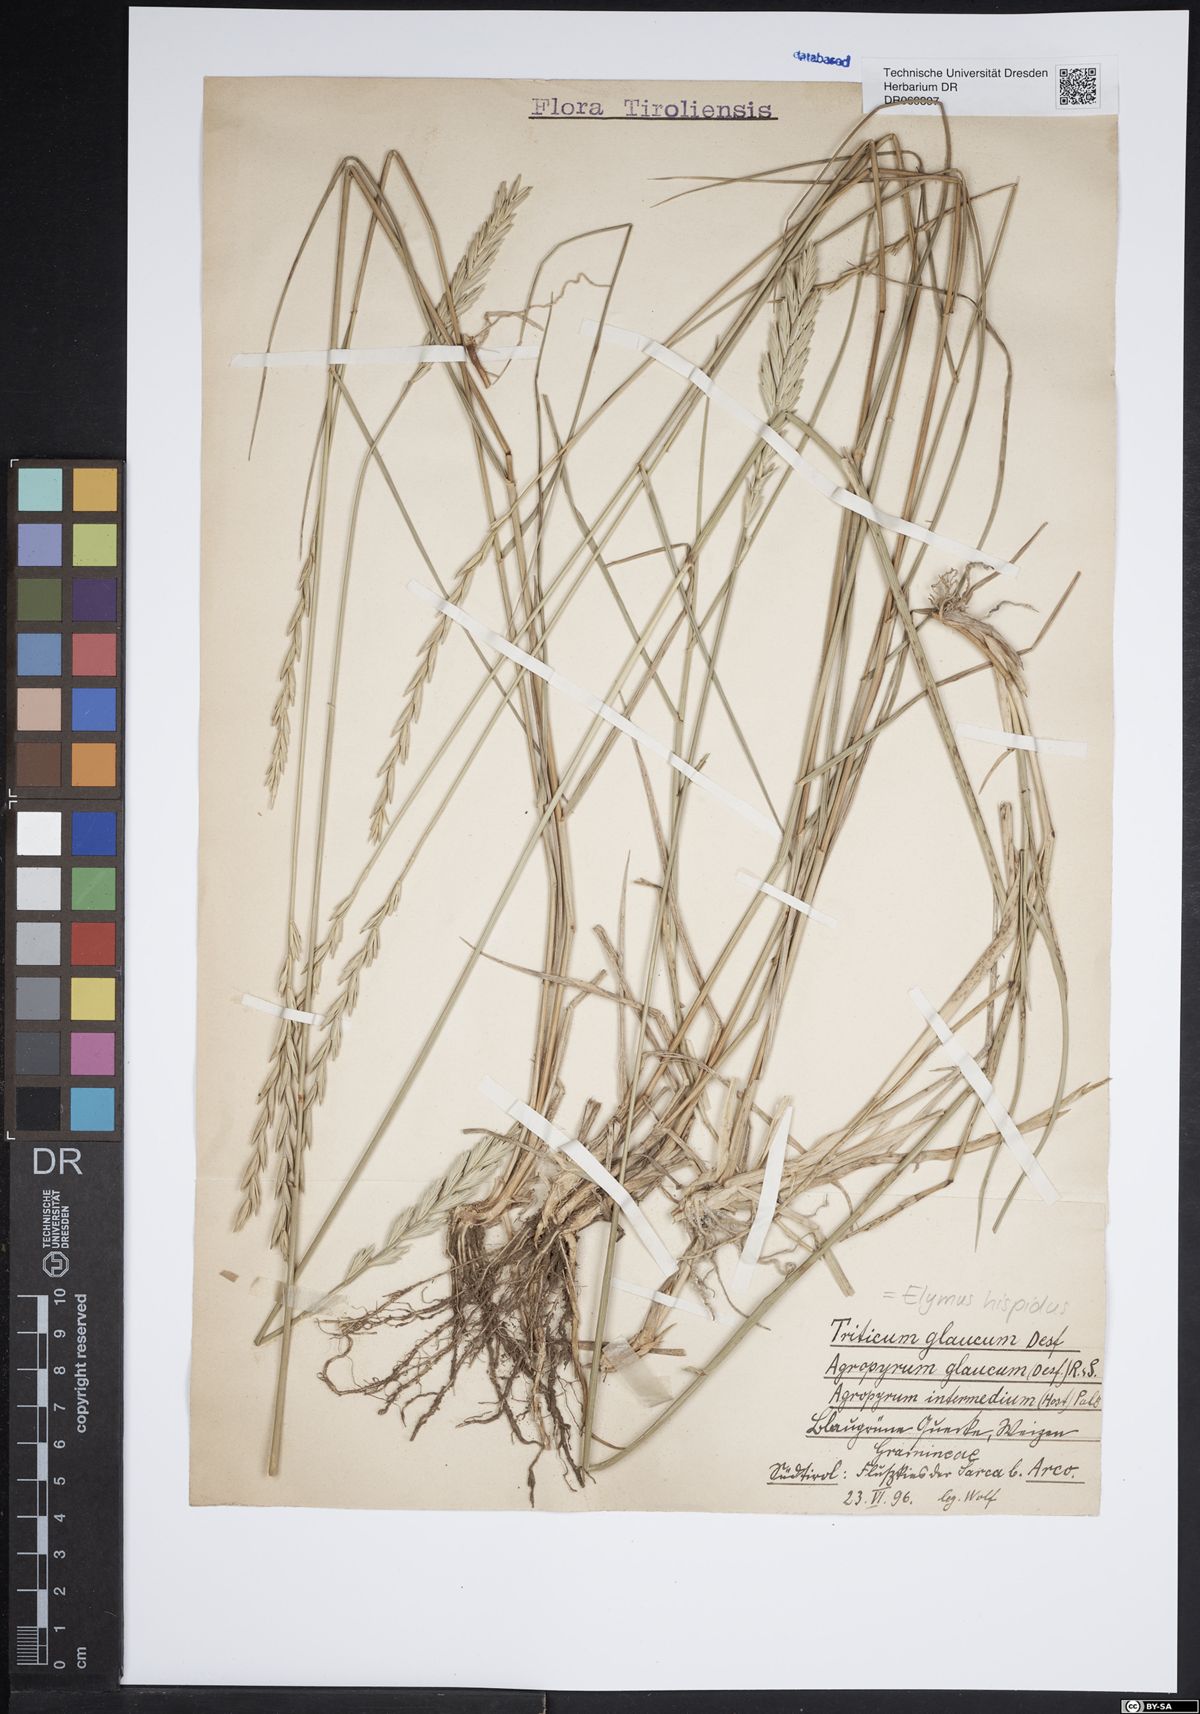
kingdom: Plantae
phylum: Tracheophyta
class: Liliopsida
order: Poales
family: Poaceae
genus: Thinopyrum
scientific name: Thinopyrum intermedium
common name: Intermediate wheatgrass
